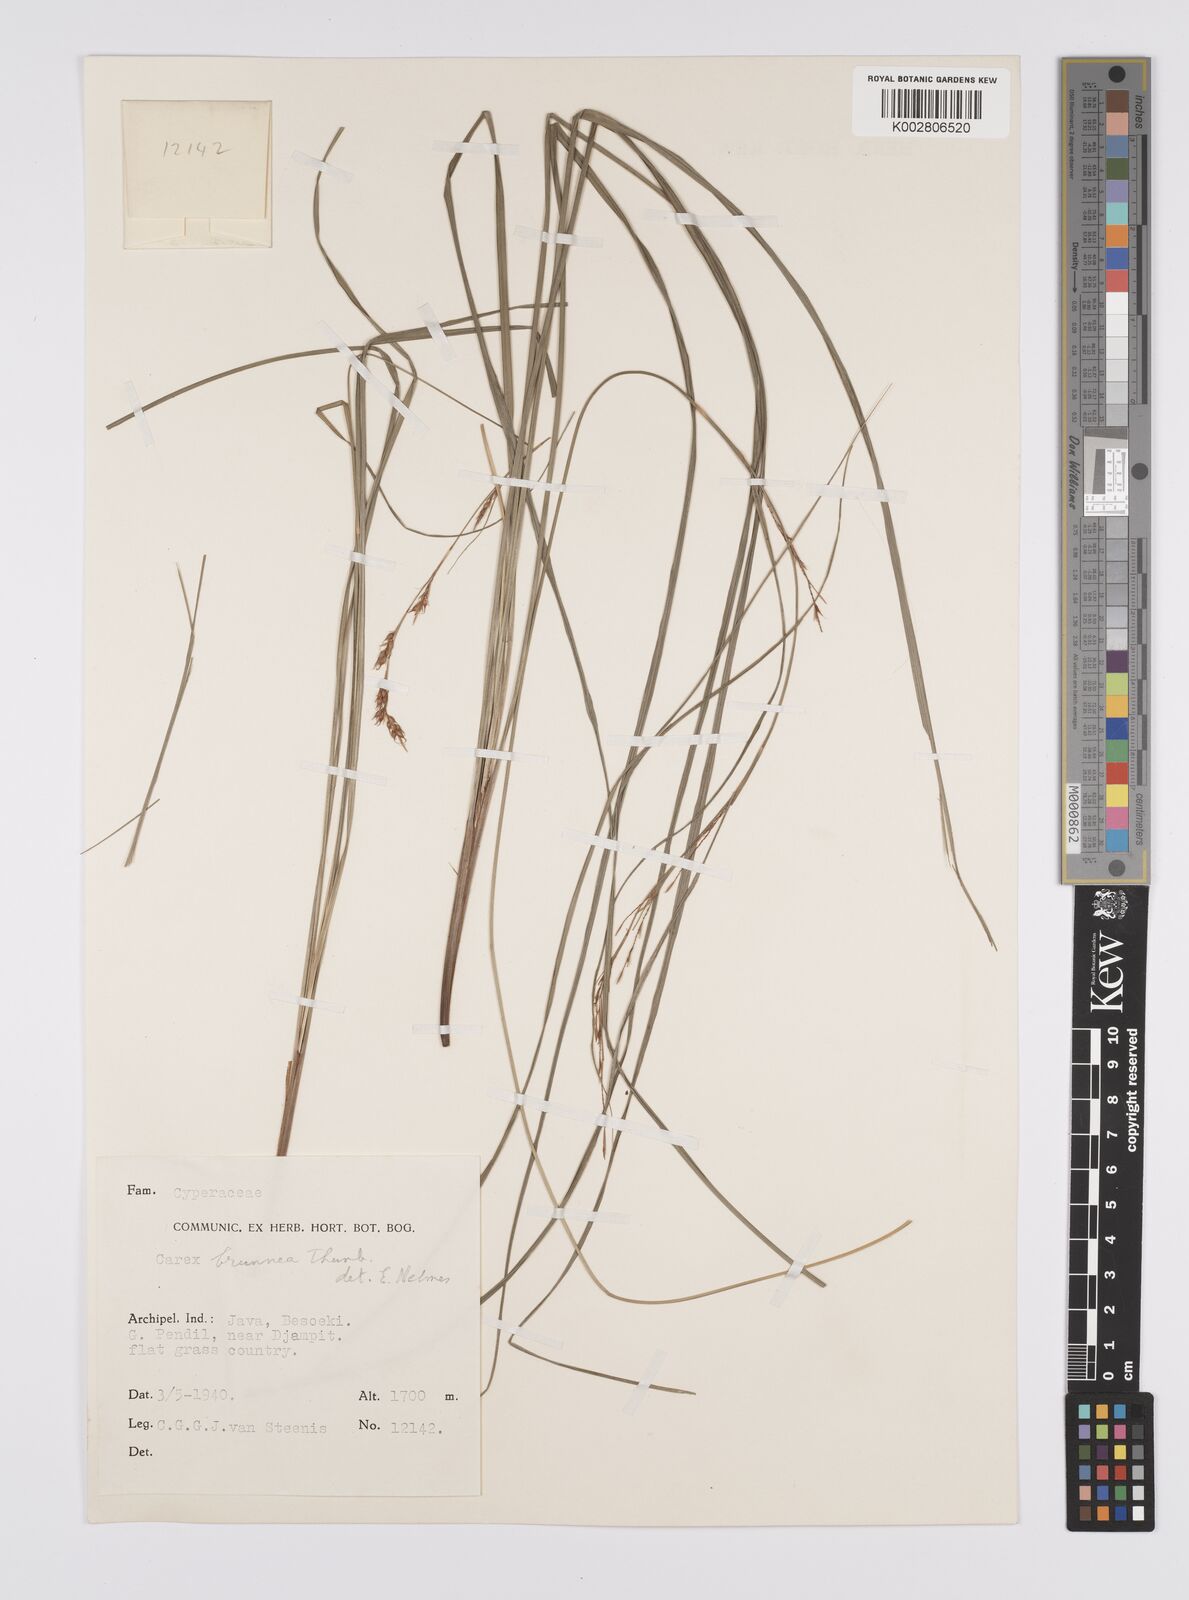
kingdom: Plantae
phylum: Tracheophyta
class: Liliopsida
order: Poales
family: Cyperaceae
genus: Carex
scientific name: Carex brunnea
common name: Greater brown sedge
